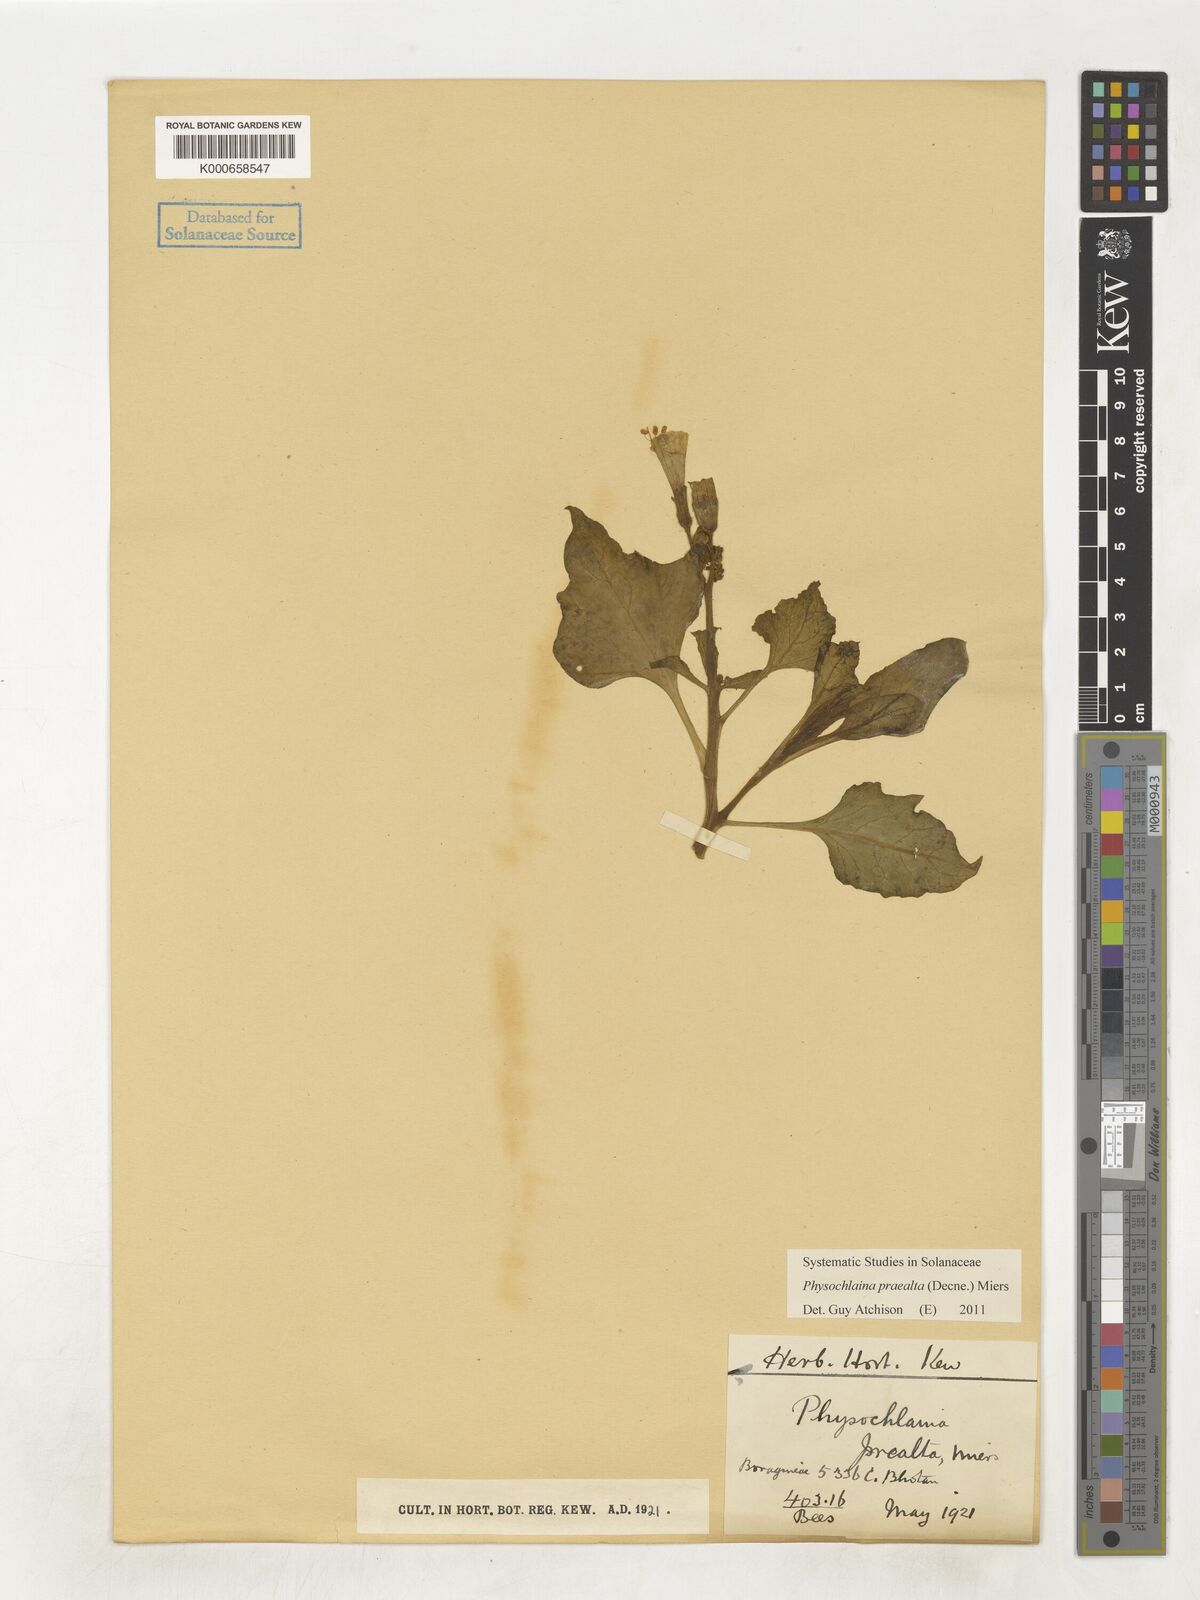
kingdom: Plantae
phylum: Tracheophyta
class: Magnoliopsida
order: Solanales
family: Solanaceae
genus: Physochlaina
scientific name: Physochlaina praealta
